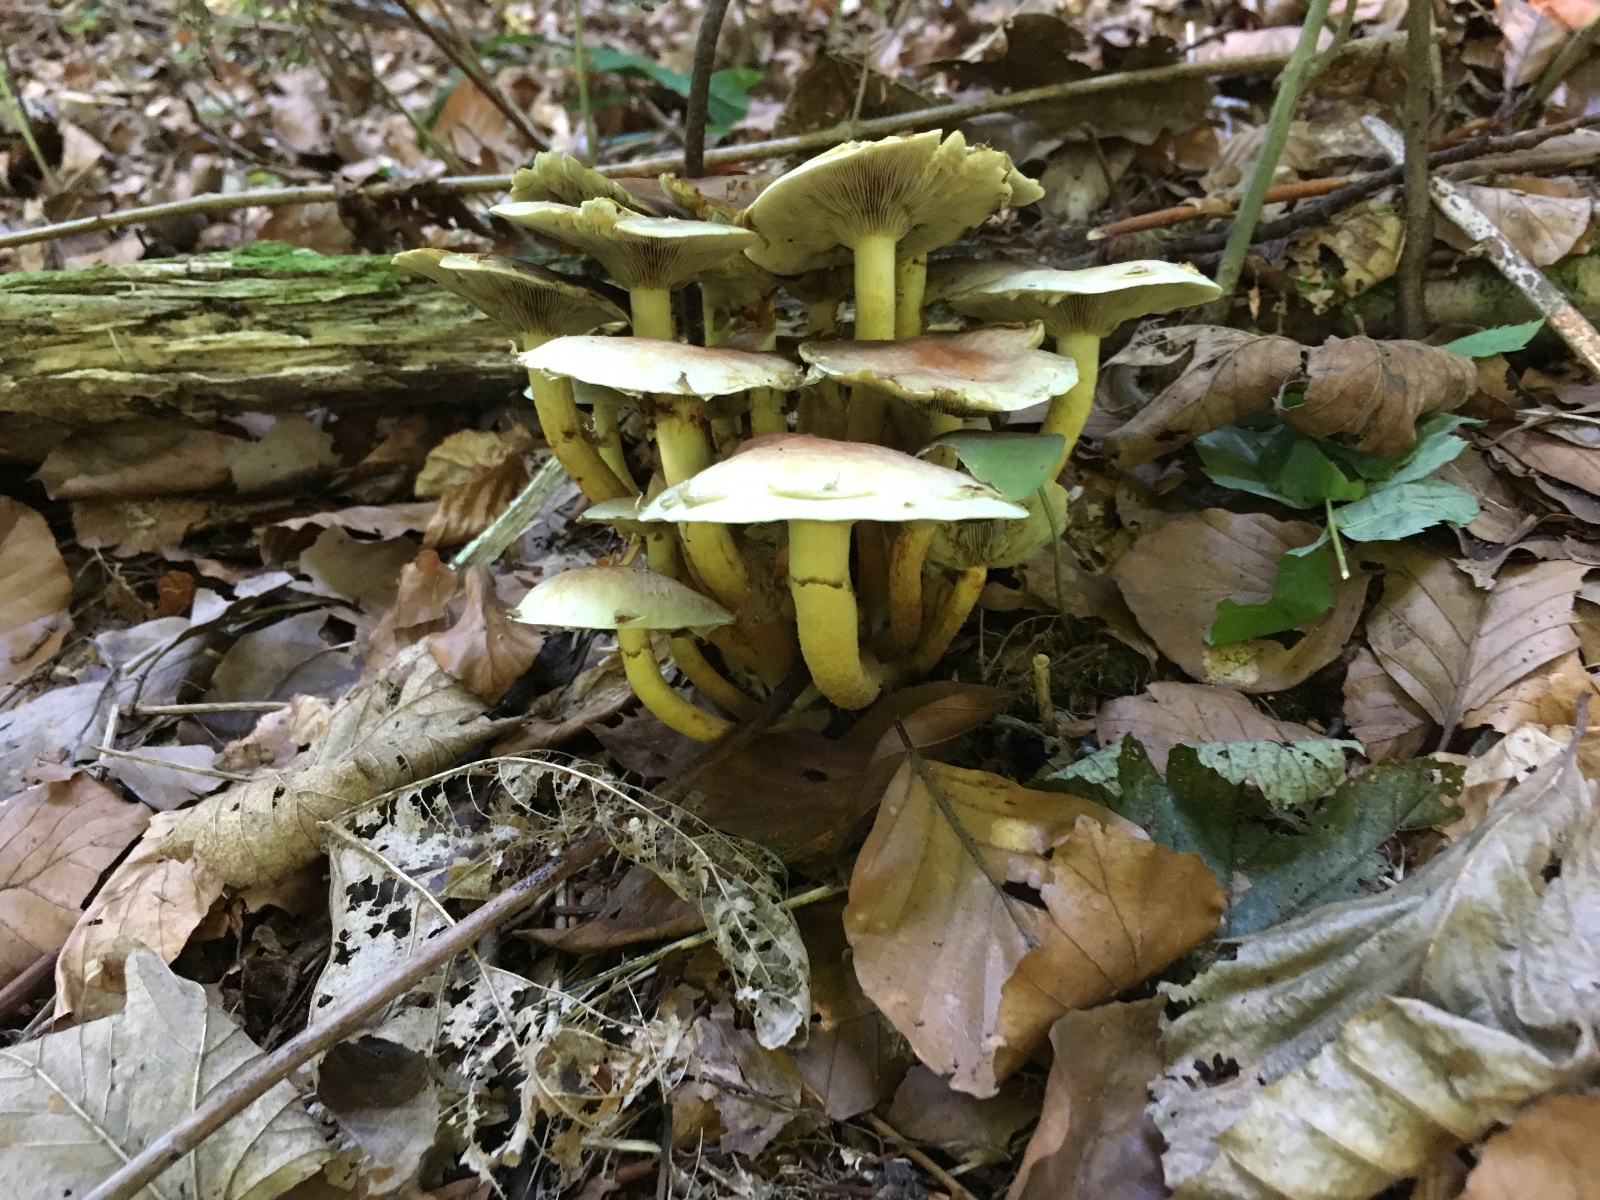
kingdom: Fungi
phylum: Basidiomycota
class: Agaricomycetes
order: Agaricales
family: Strophariaceae
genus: Hypholoma
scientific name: Hypholoma fasciculare
